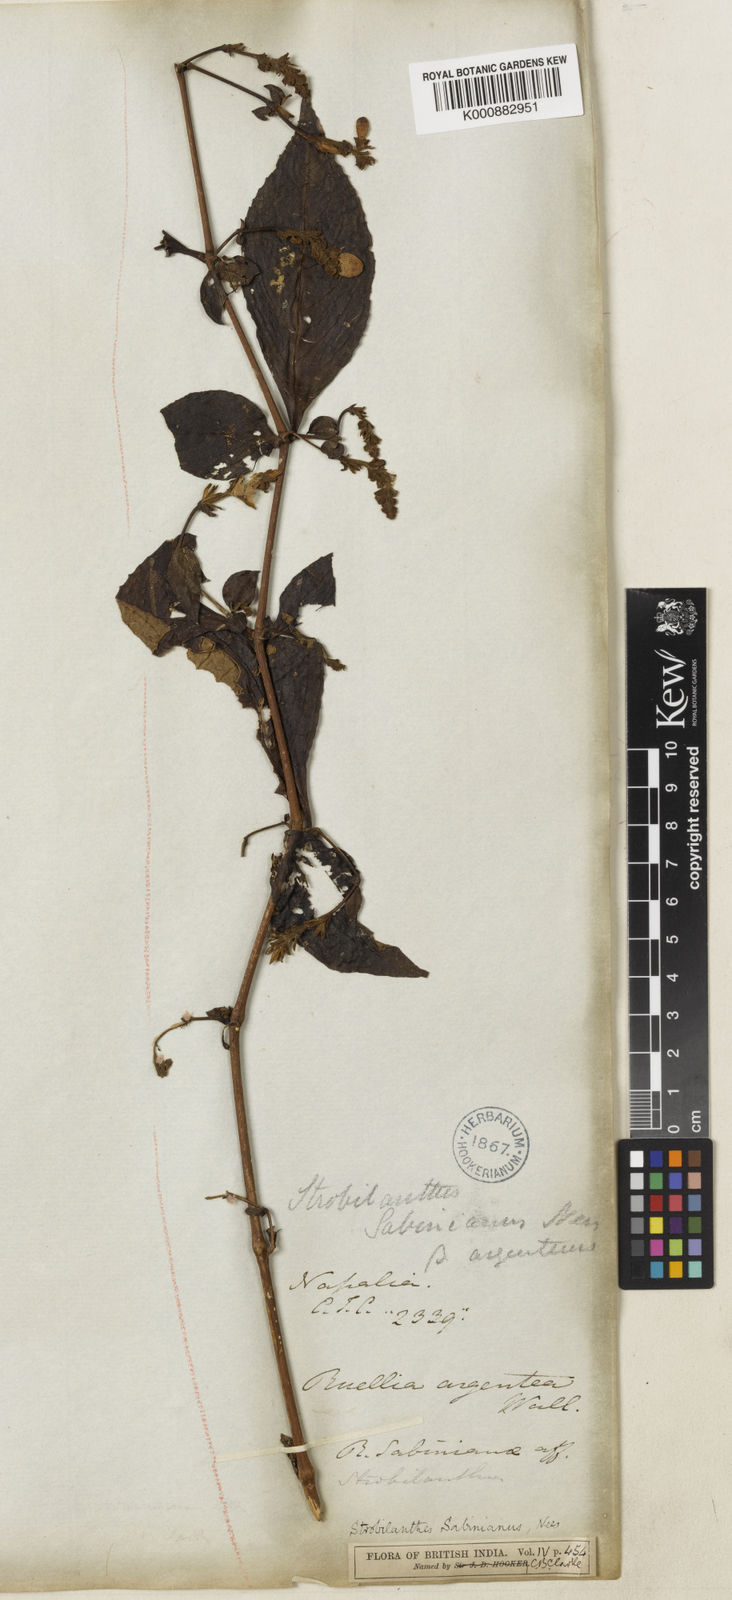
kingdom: Plantae
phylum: Tracheophyta
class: Magnoliopsida
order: Lamiales
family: Acanthaceae
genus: Strobilanthes
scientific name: Strobilanthes sabiniana
